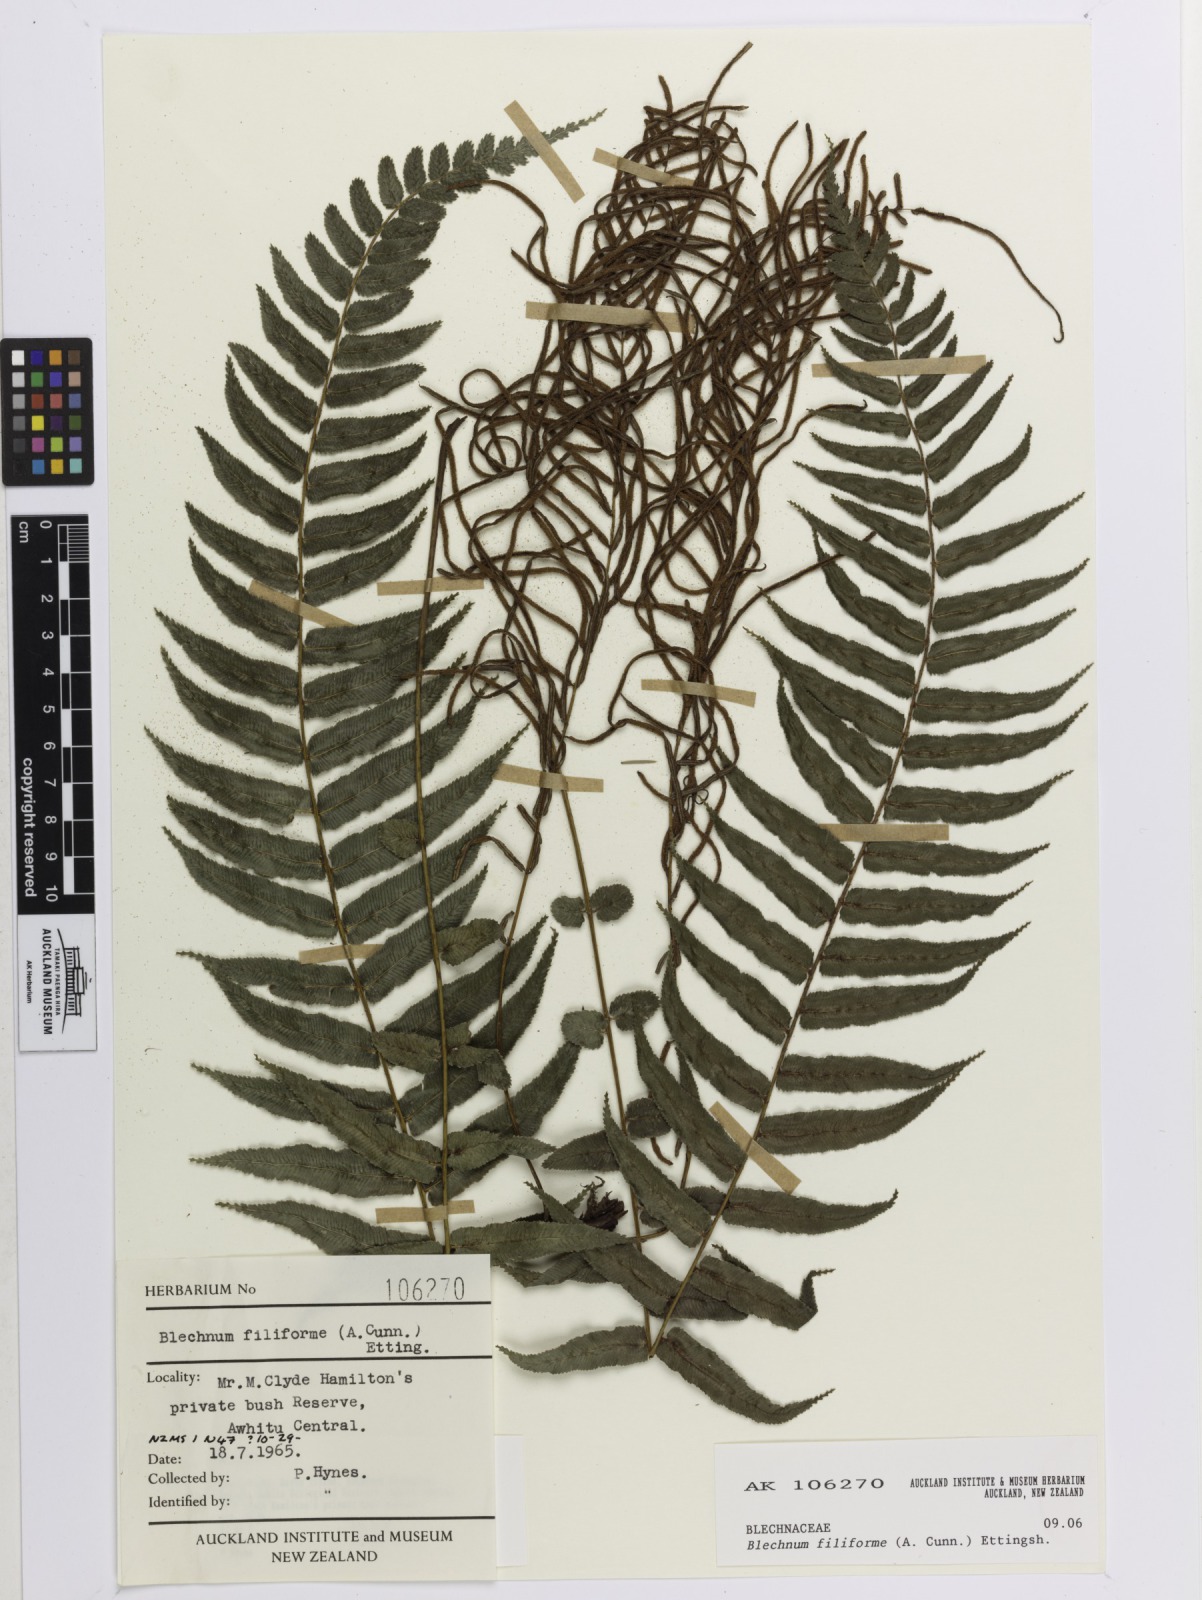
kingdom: Plantae
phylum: Tracheophyta
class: Polypodiopsida
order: Polypodiales
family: Blechnaceae
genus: Icarus
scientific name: Icarus filiformis
